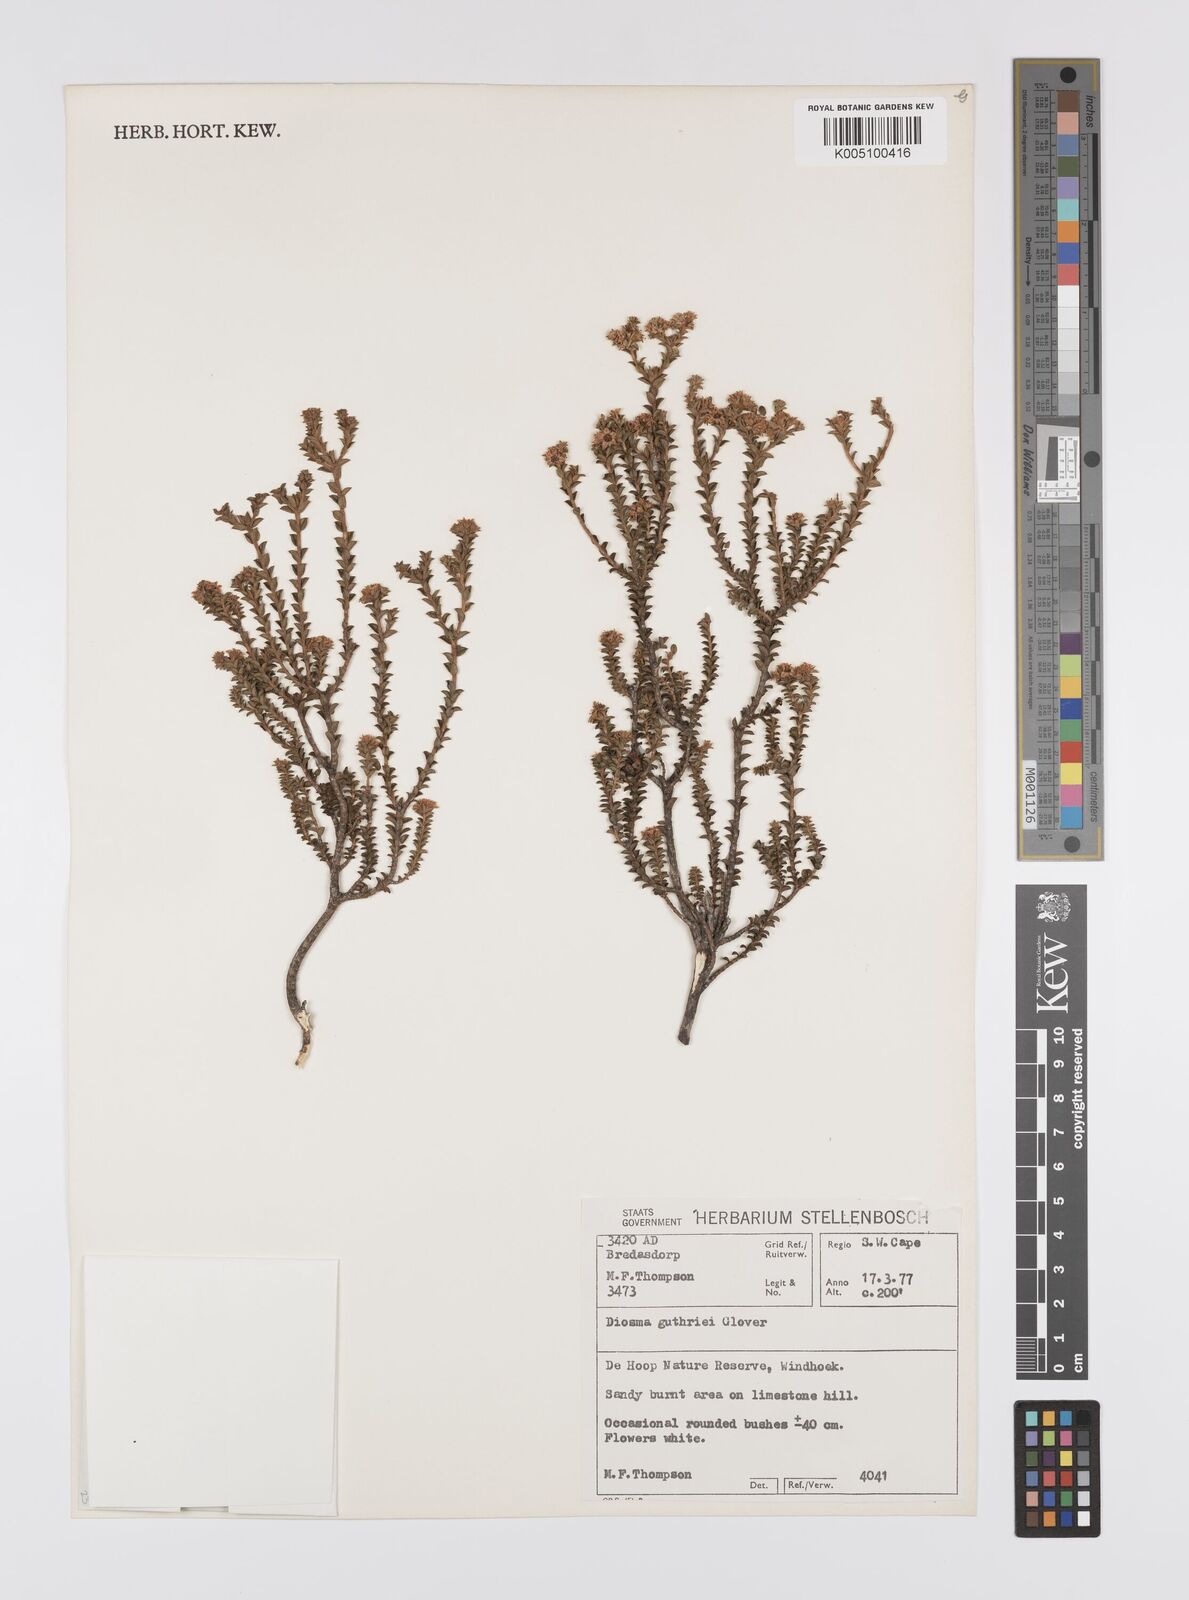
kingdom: Plantae
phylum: Tracheophyta
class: Magnoliopsida
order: Sapindales
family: Rutaceae
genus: Diosma
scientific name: Diosma guthriei
